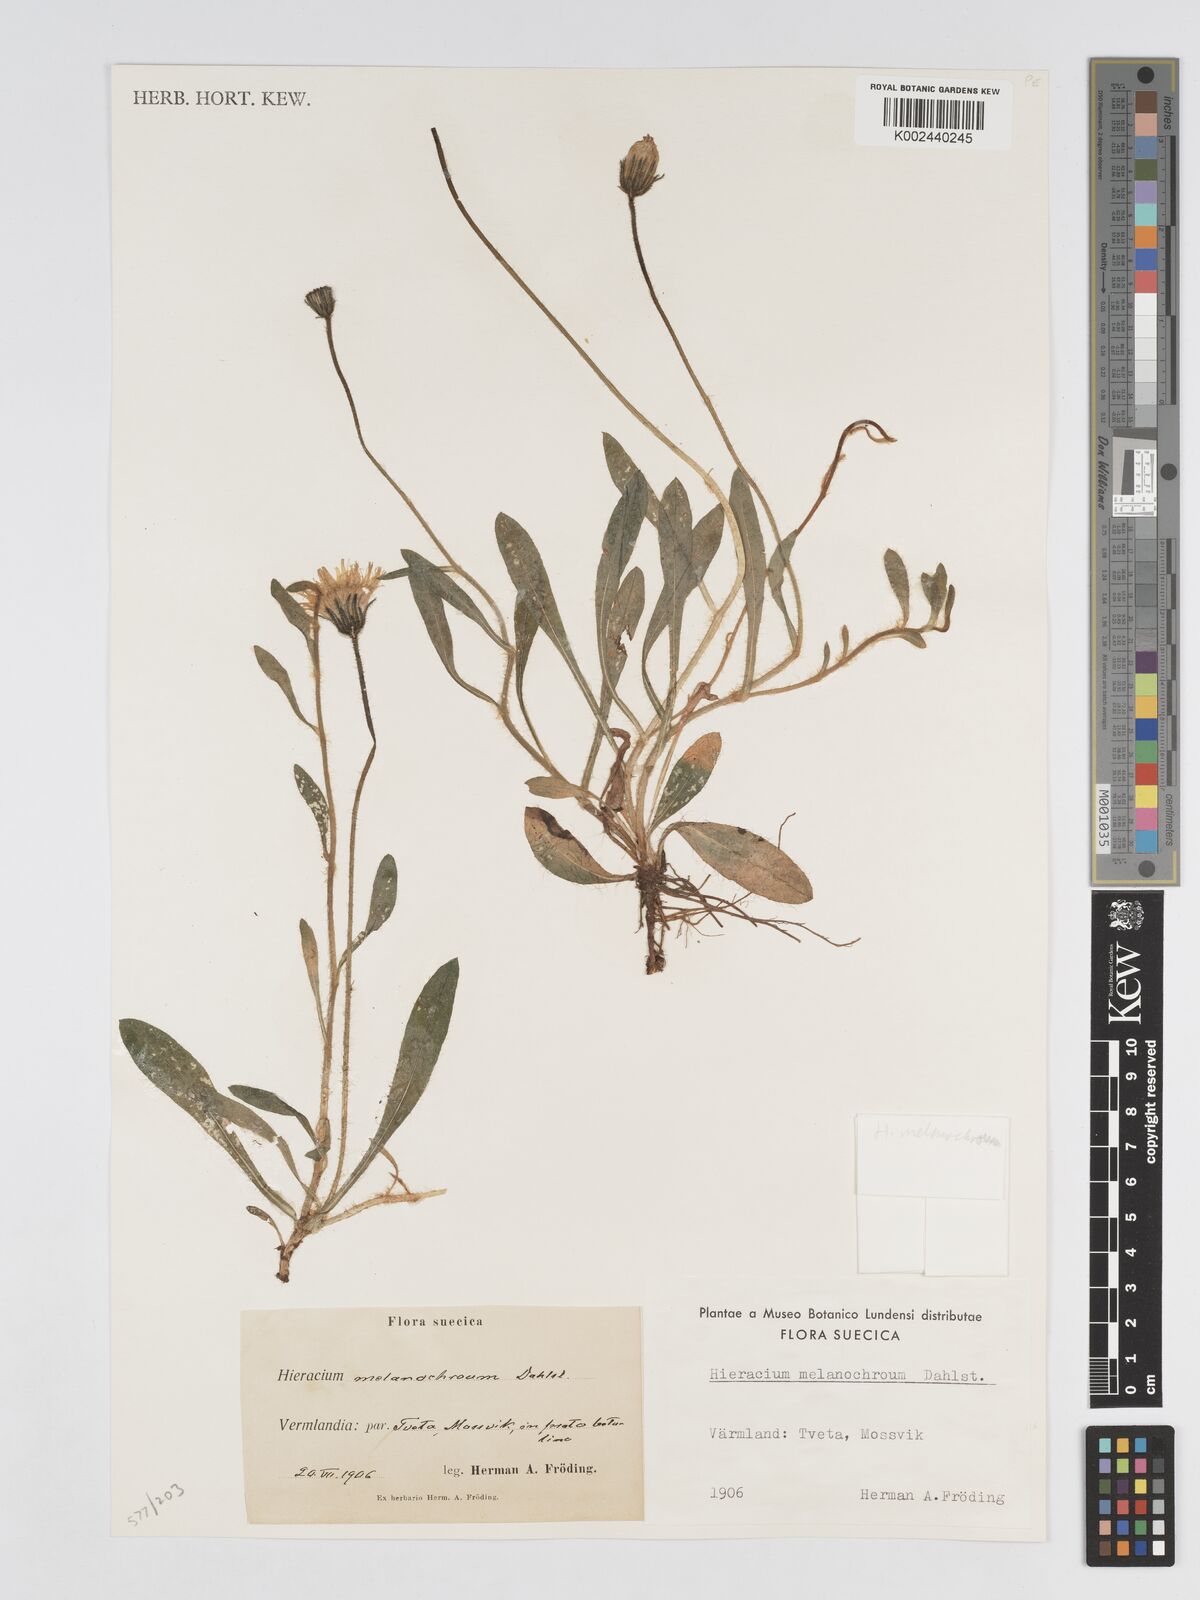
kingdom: Plantae
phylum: Tracheophyta
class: Magnoliopsida
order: Asterales
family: Asteraceae
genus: Pilosella
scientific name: Pilosella officinarum
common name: Mouse-ear hawkweed
